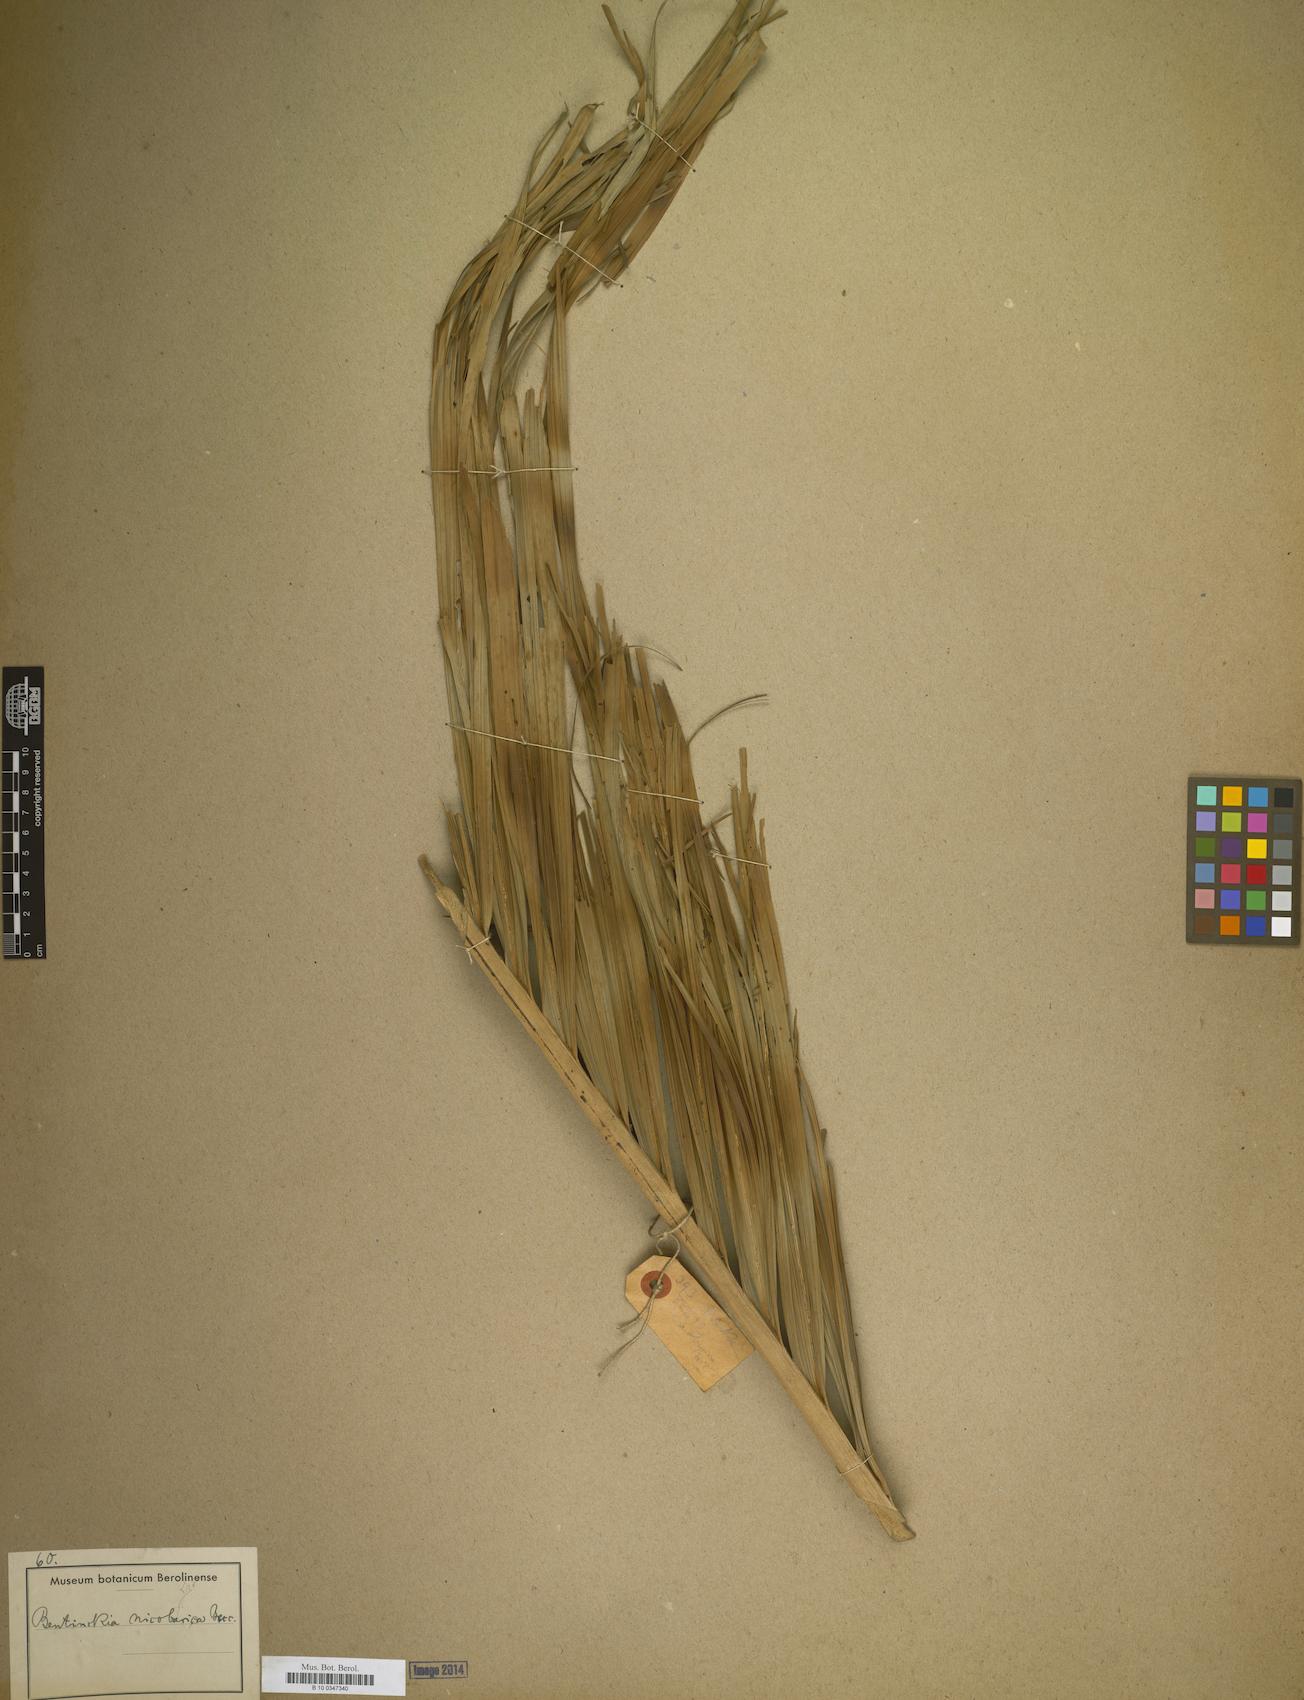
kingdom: Plantae
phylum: Tracheophyta
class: Liliopsida
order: Arecales
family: Arecaceae
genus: Bentinckia
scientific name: Bentinckia
